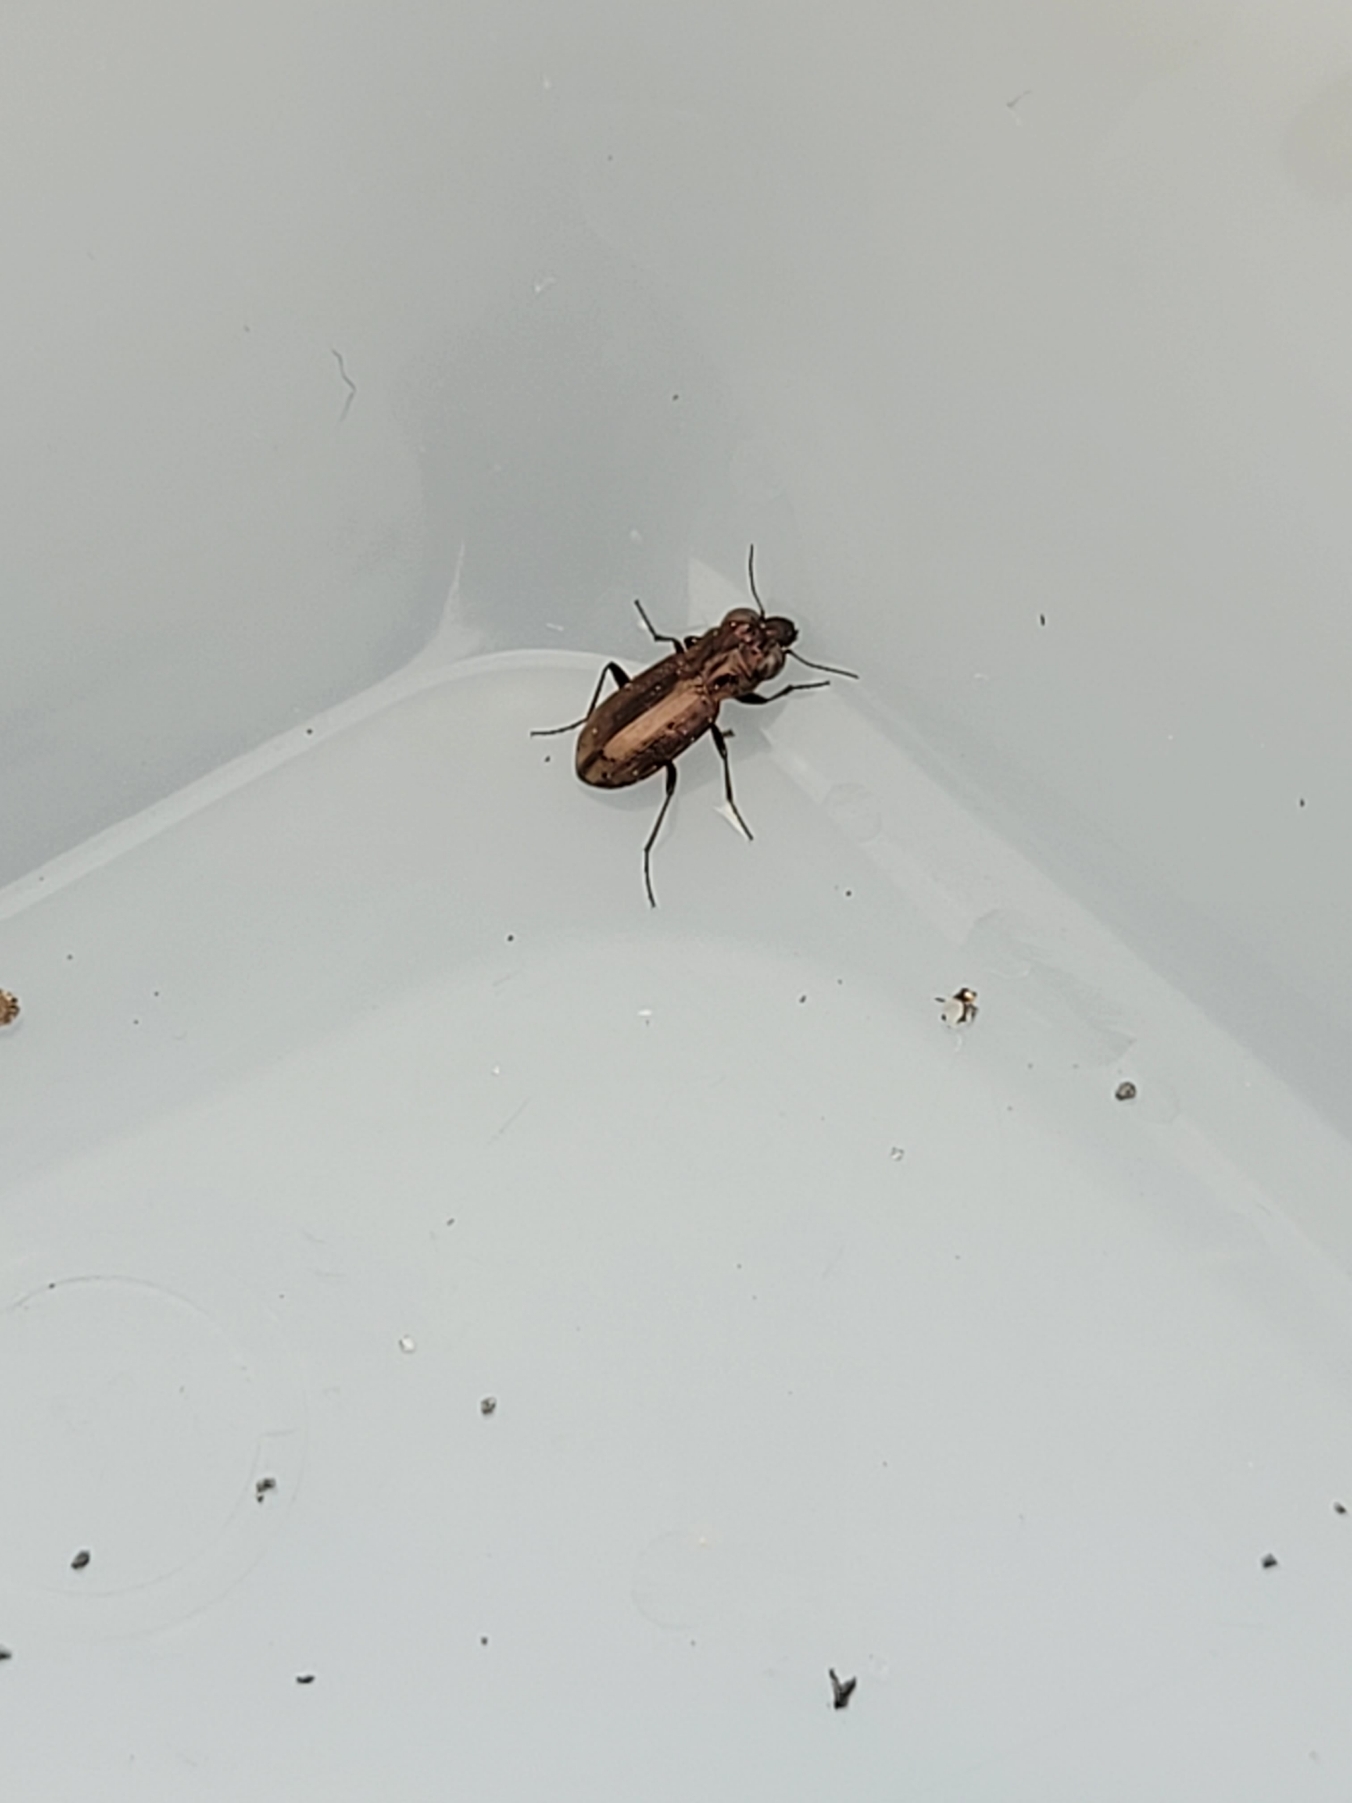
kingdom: Animalia
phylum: Arthropoda
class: Insecta
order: Coleoptera
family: Carabidae
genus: Notiophilus
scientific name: Notiophilus biguttatus
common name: Toplettet spejlløber
